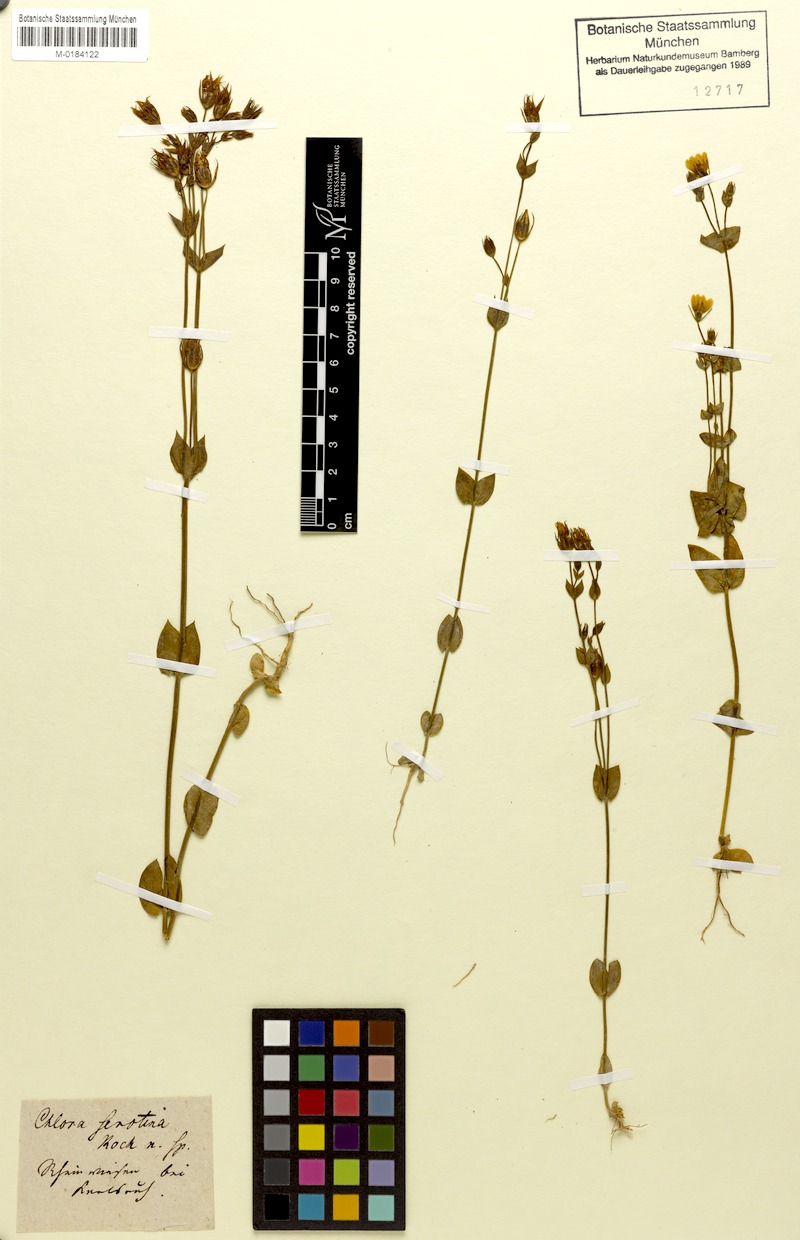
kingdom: Plantae
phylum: Tracheophyta
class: Magnoliopsida
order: Gentianales
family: Gentianaceae
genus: Blackstonia
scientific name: Blackstonia acuminata
